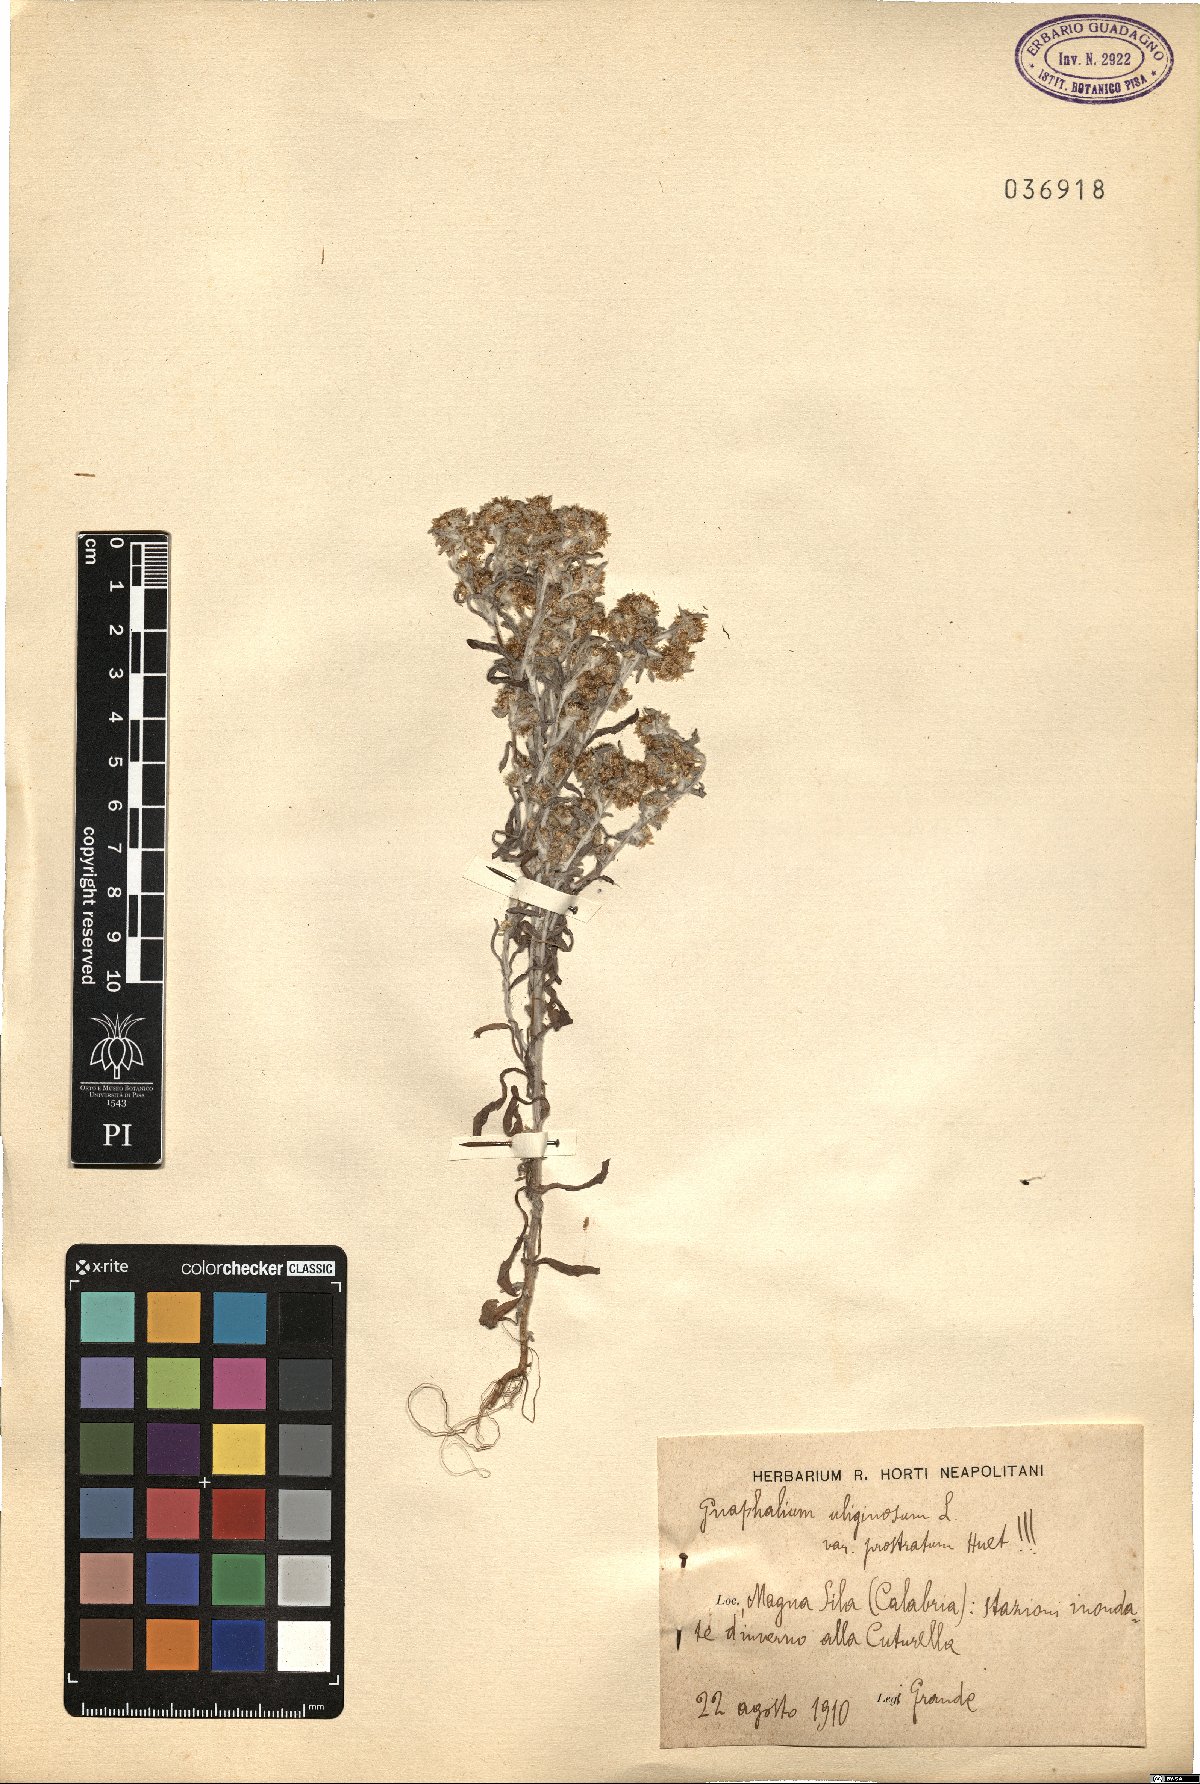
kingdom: Plantae
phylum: Tracheophyta
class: Magnoliopsida
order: Asterales
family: Asteraceae
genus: Gnaphalium
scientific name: Gnaphalium uliginosum
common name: Marsh cudweed
